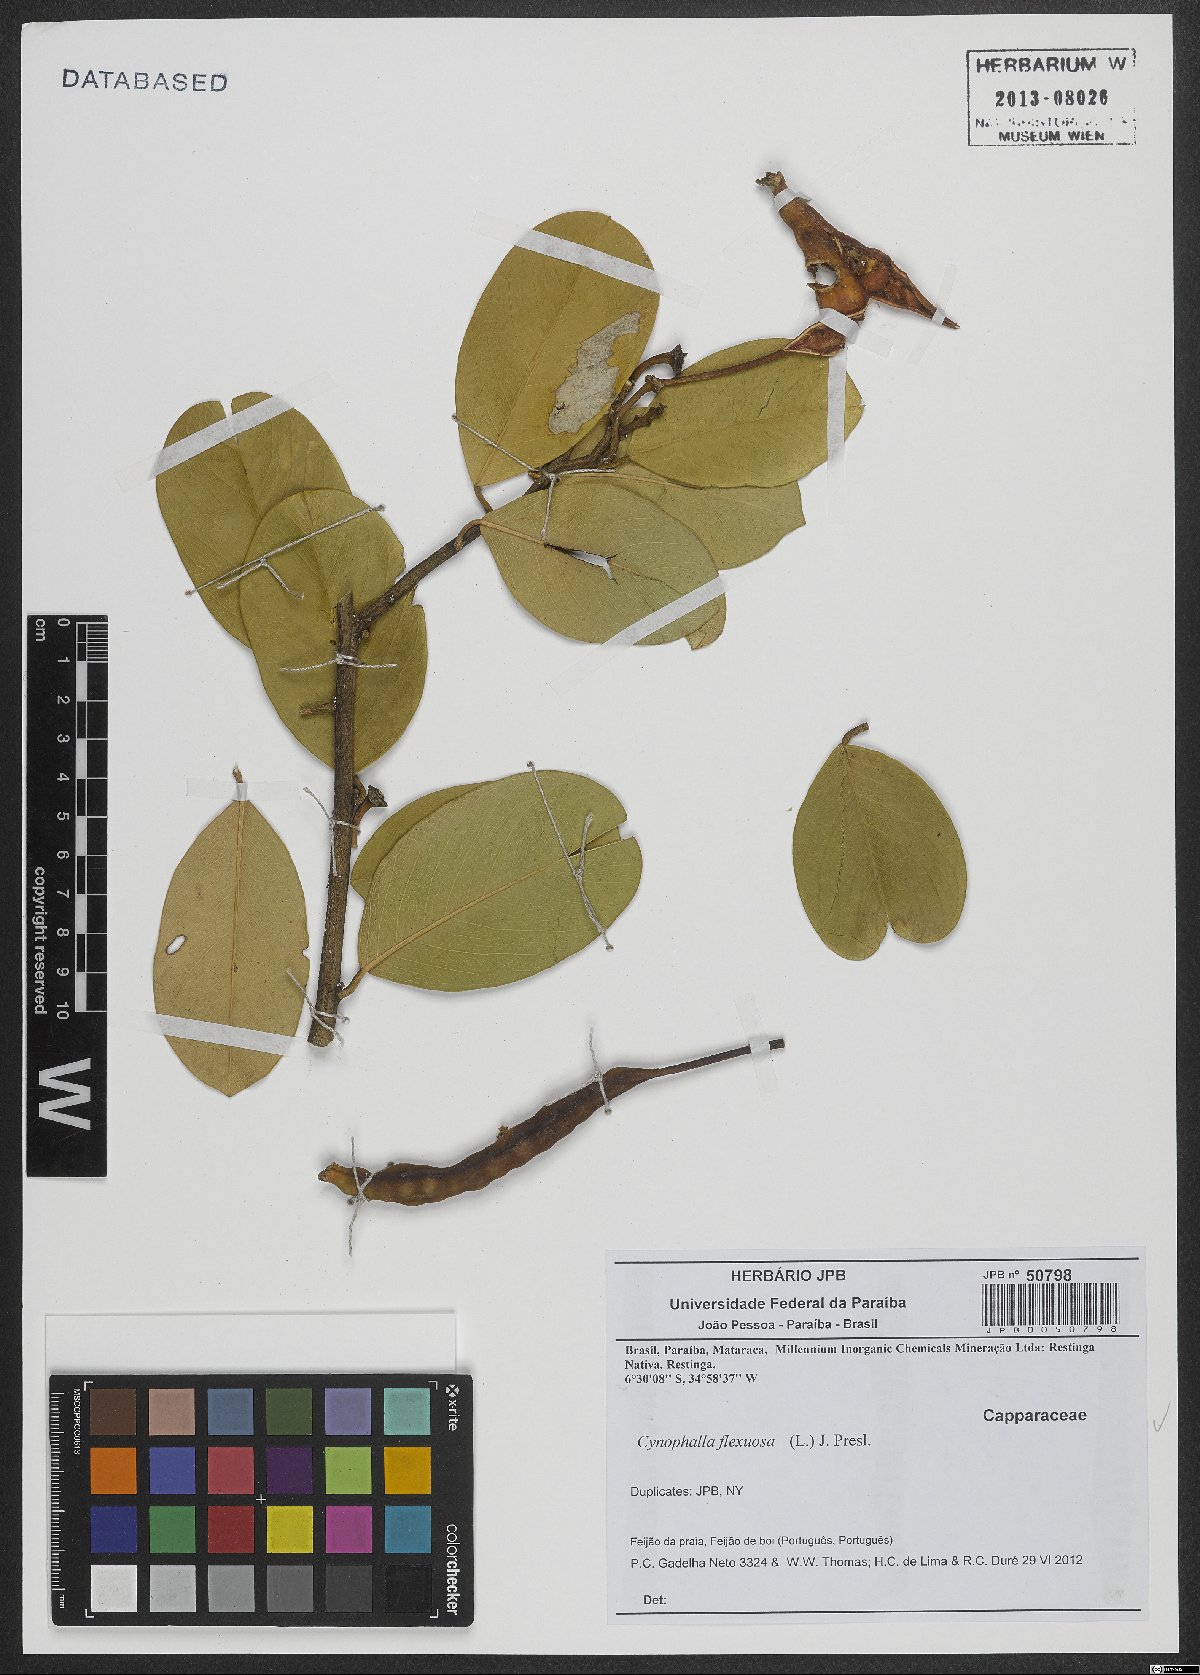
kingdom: Plantae
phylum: Tracheophyta
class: Magnoliopsida
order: Brassicales
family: Capparaceae
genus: Cynophalla
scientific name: Cynophalla flexuosa
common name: Capertree
